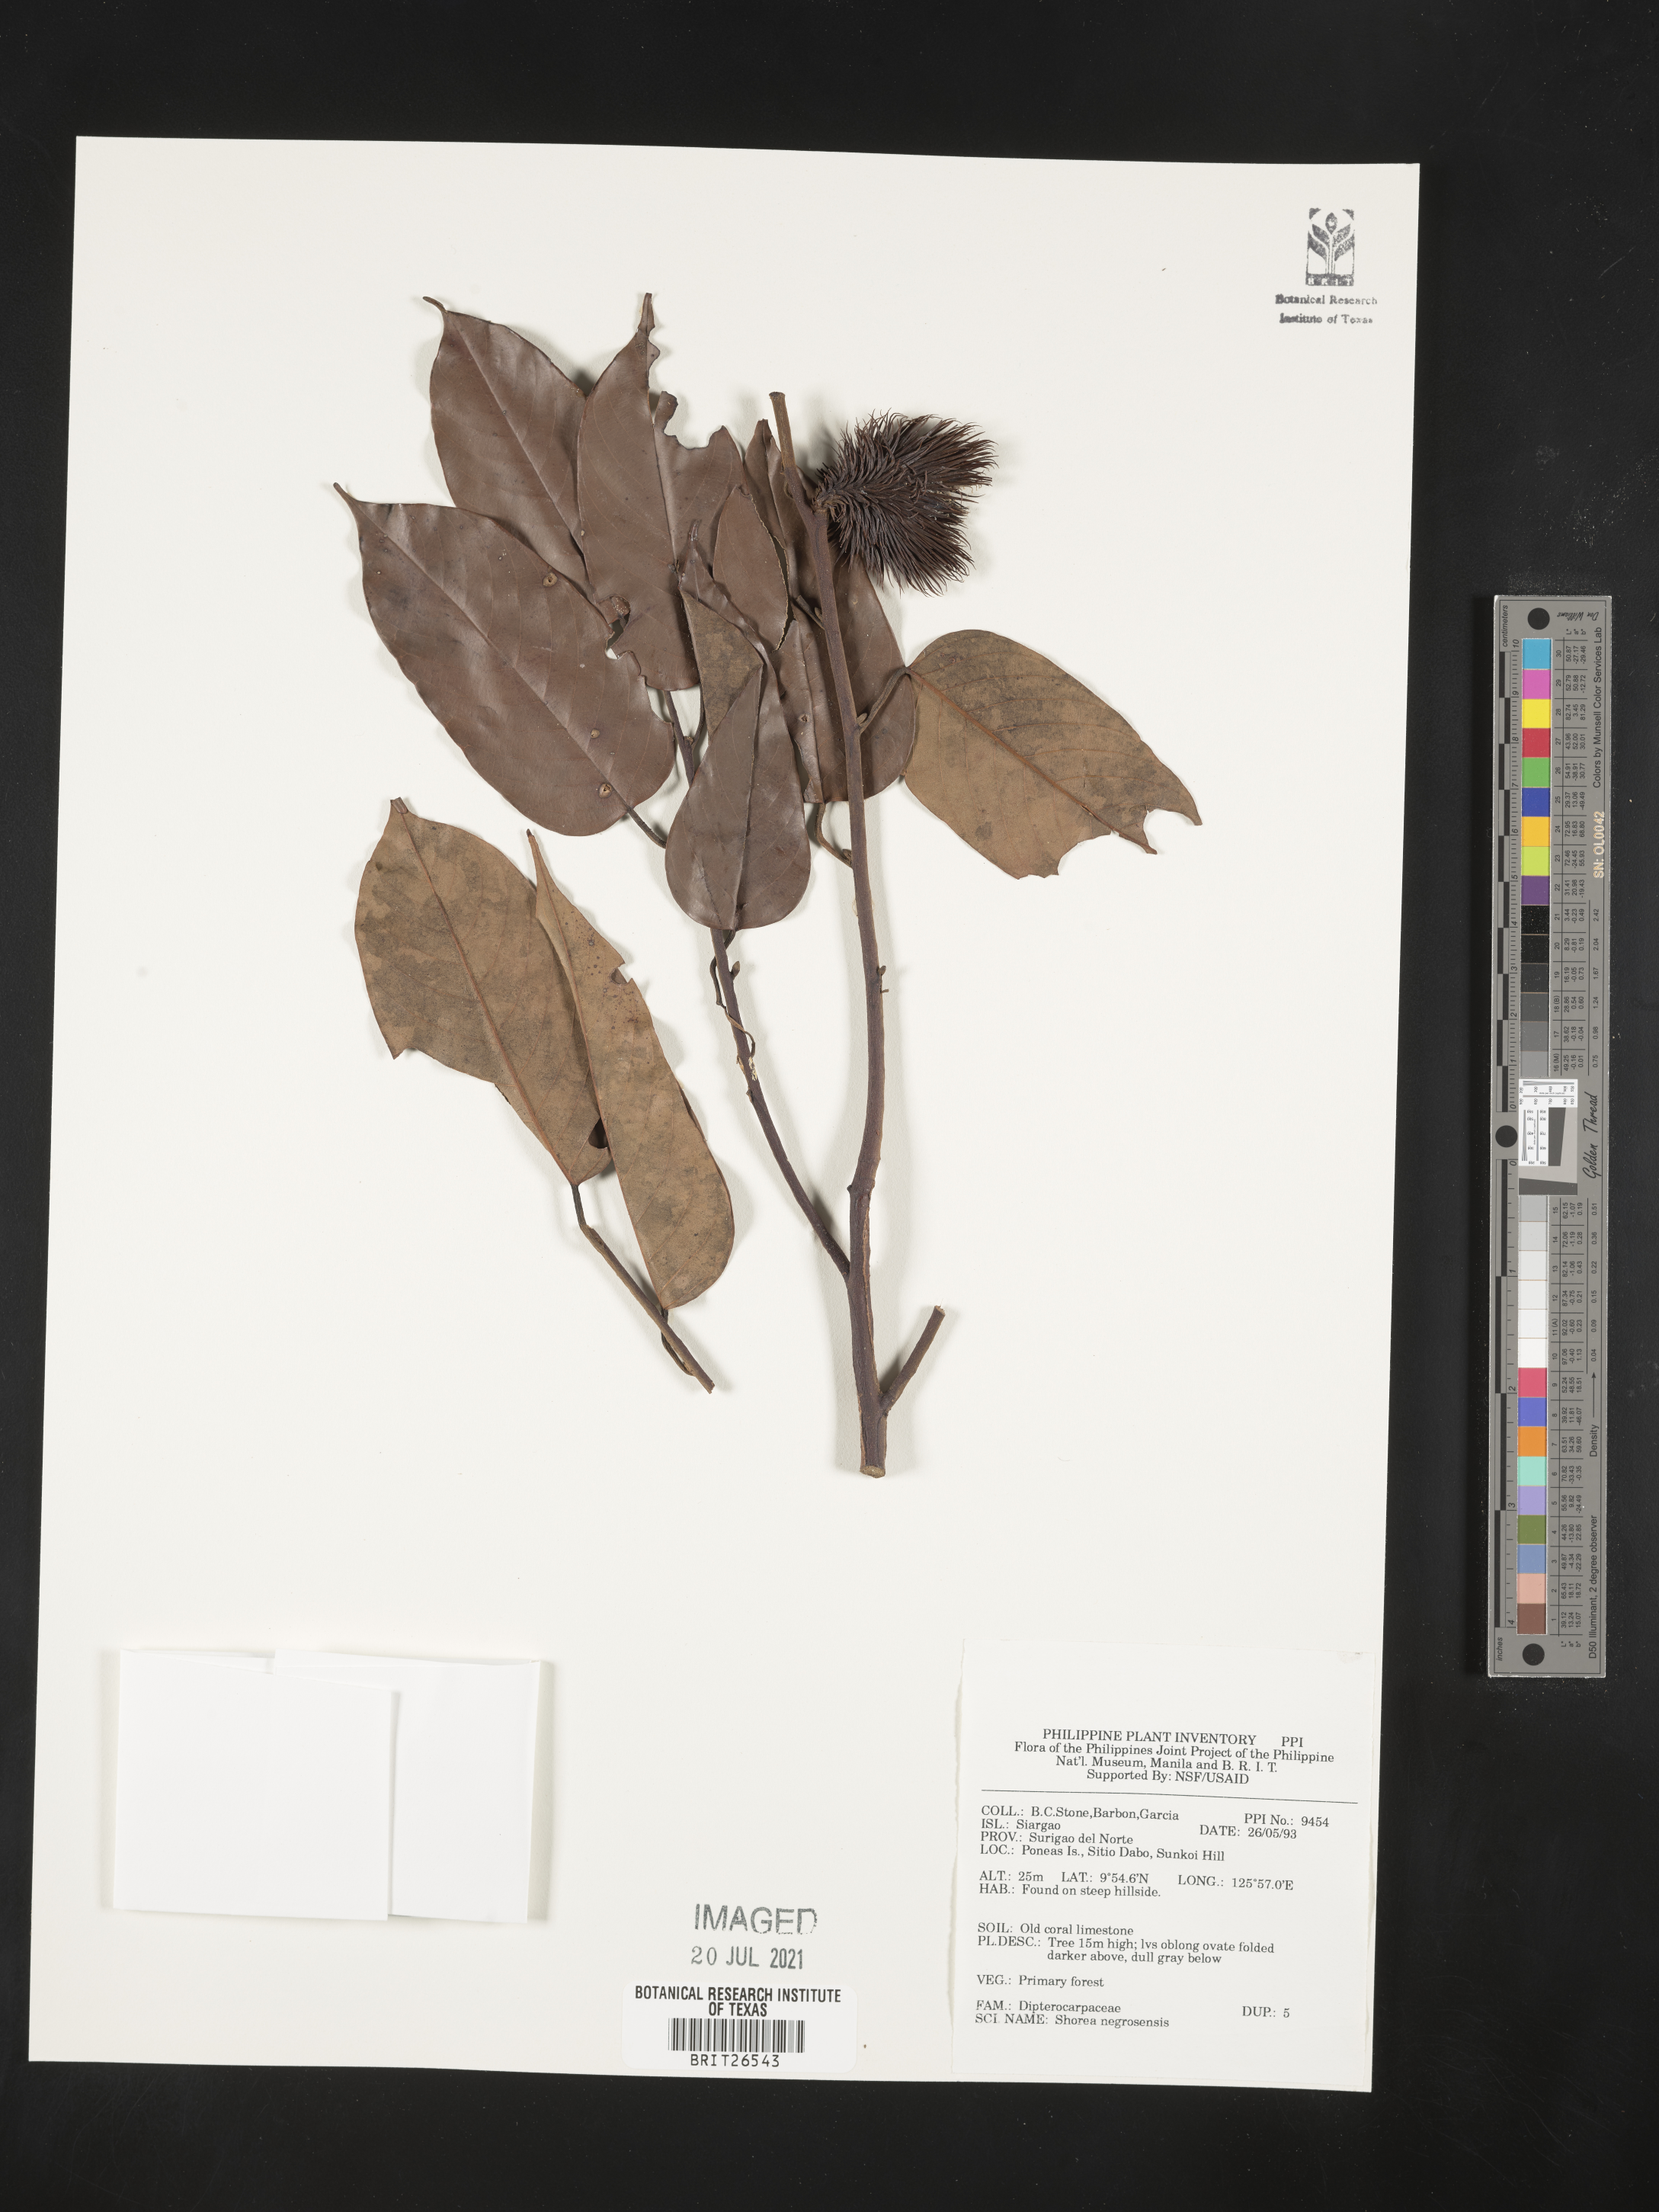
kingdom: Plantae
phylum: Tracheophyta
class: Magnoliopsida
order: Malvales
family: Dipterocarpaceae
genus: Shorea
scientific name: Shorea negrosensis
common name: Red lauan
